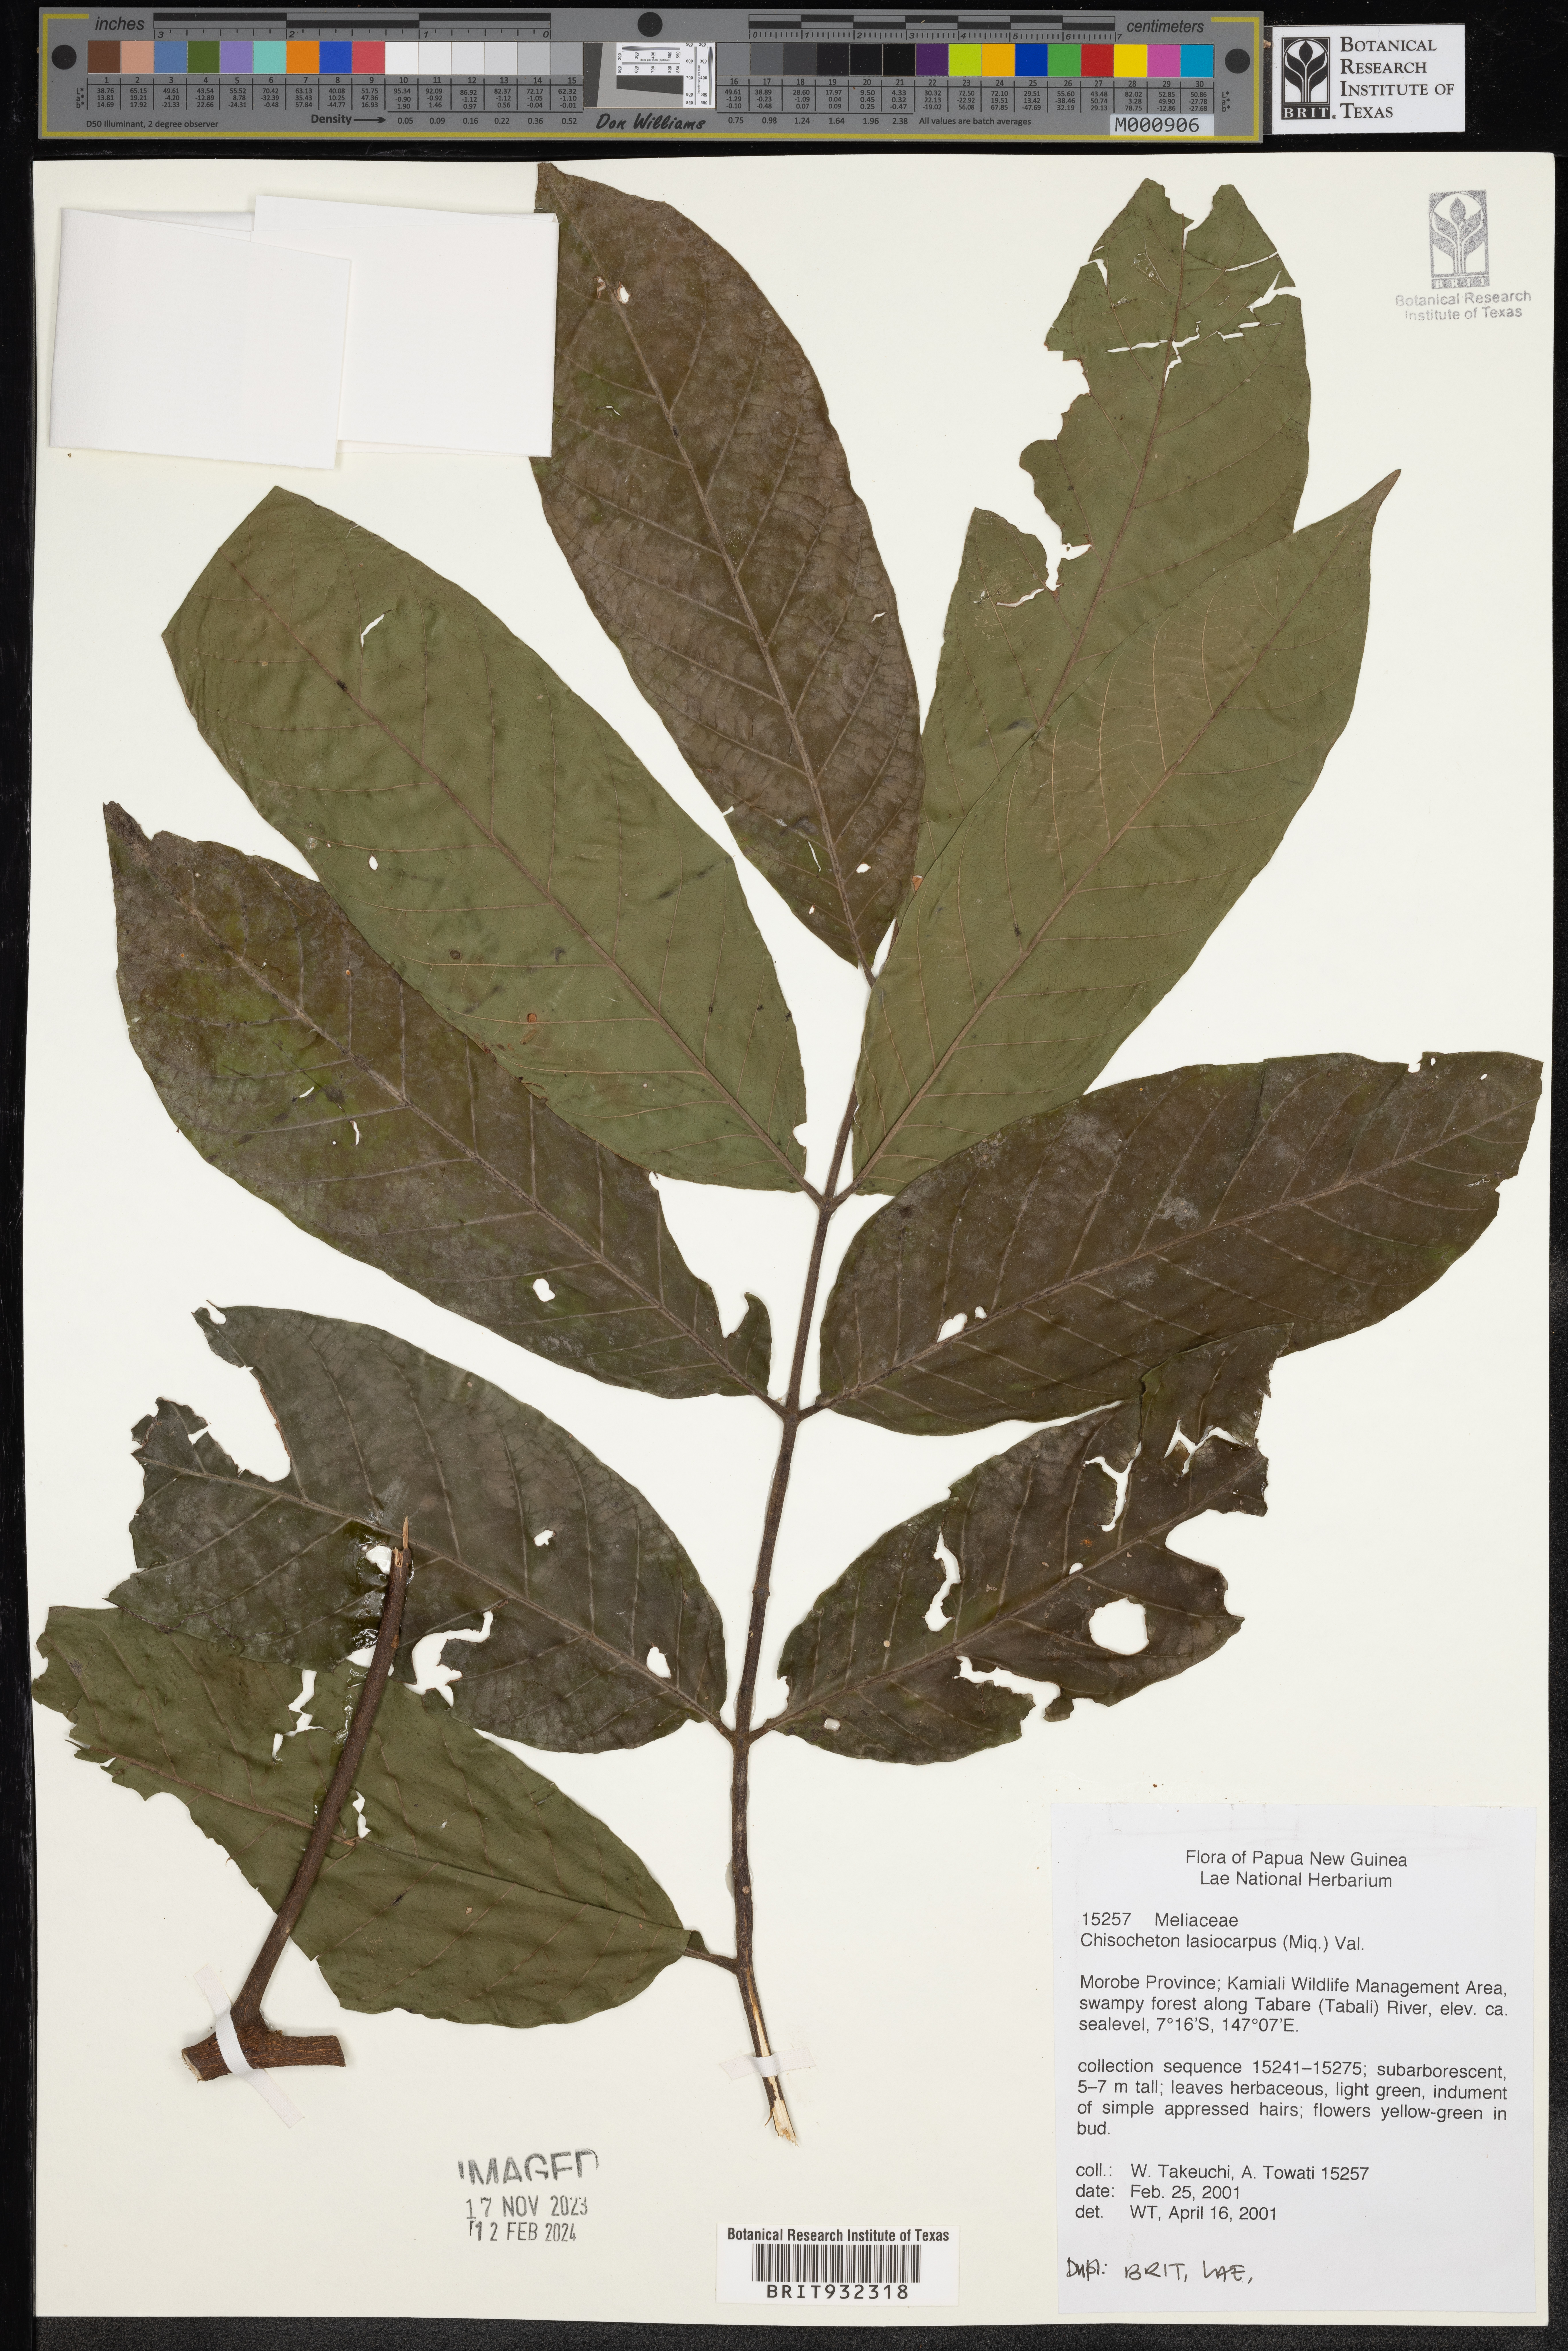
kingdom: Plantae
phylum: Tracheophyta
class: Magnoliopsida
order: Sapindales
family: Meliaceae
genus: Chisocheton
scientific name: Chisocheton
